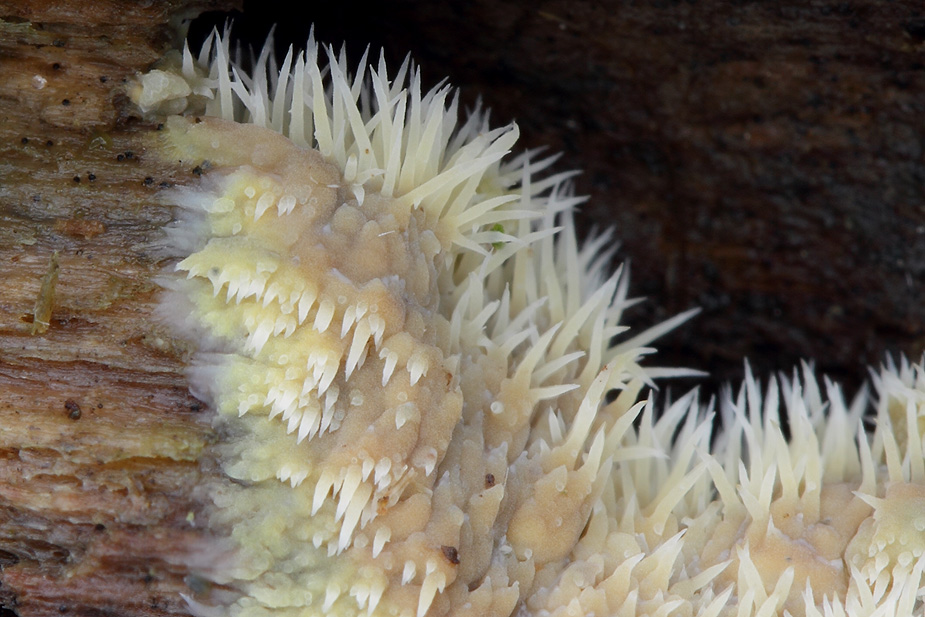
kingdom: Fungi
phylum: Basidiomycota
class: Agaricomycetes
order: Polyporales
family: Meruliaceae
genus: Mycoacia
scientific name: Mycoacia uda
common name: citrongul vokspig
